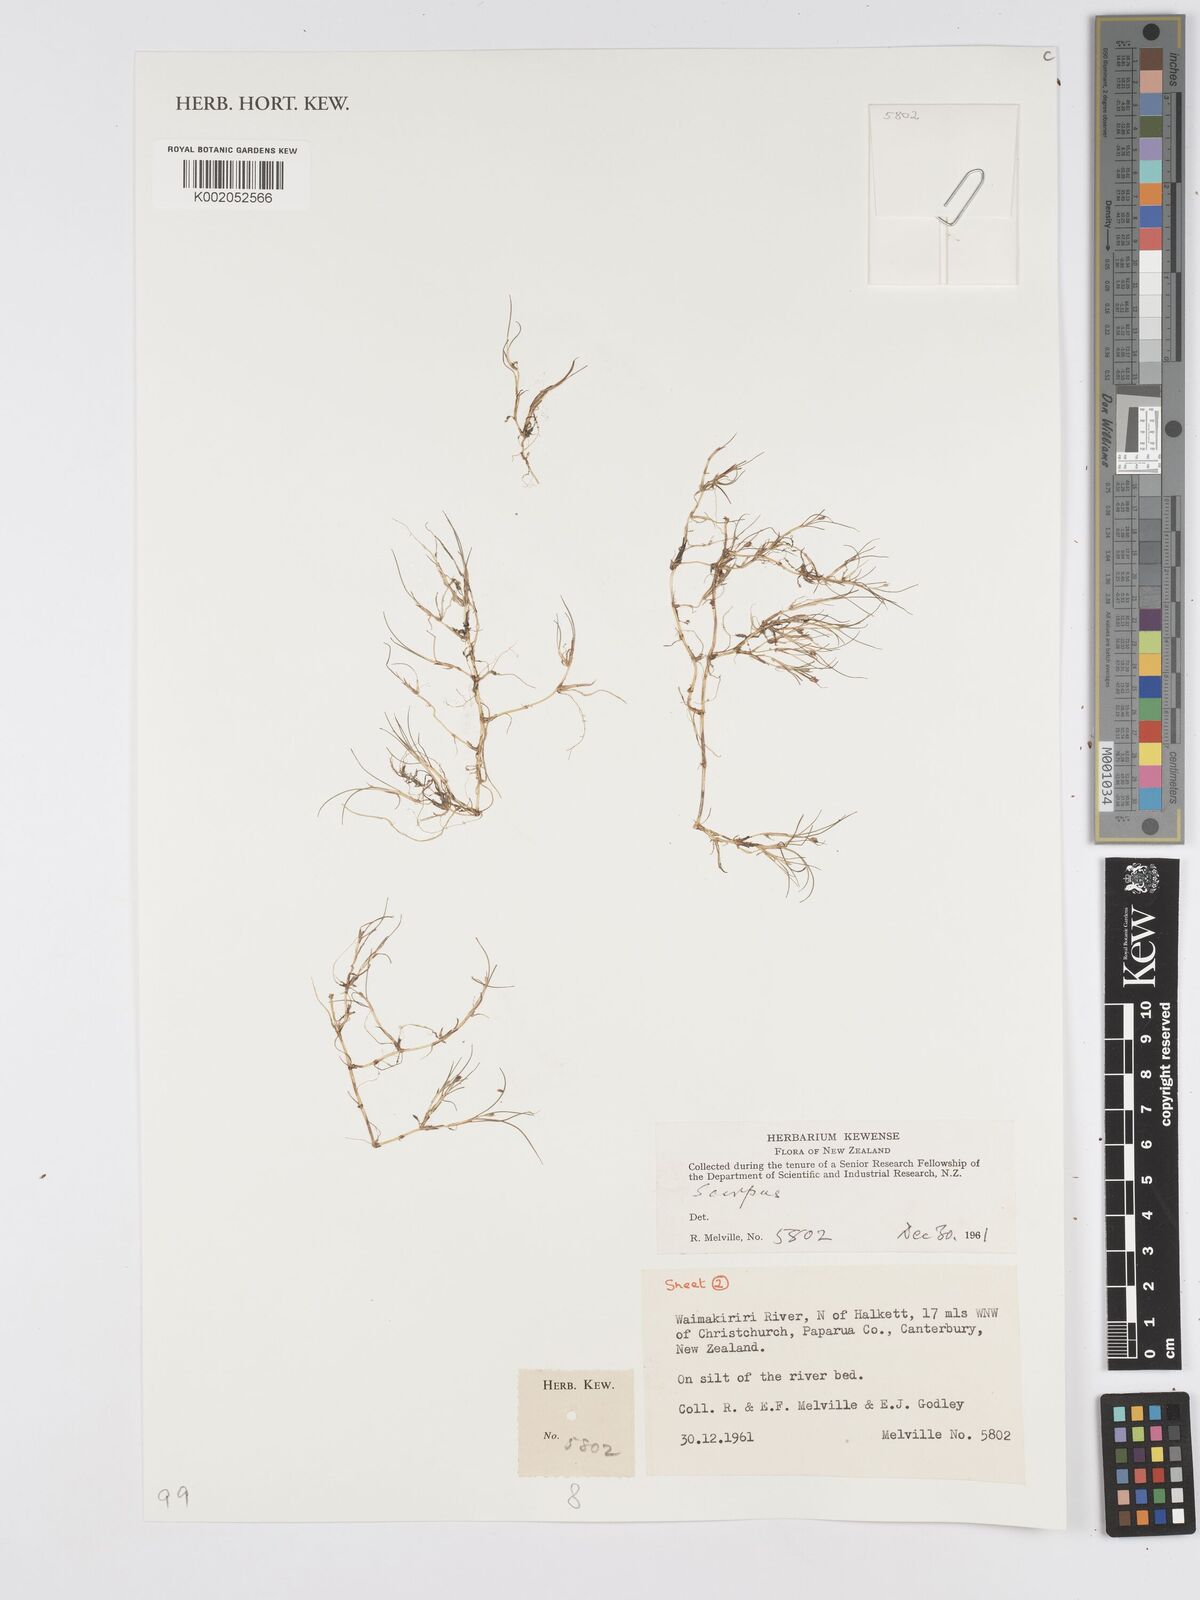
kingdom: Plantae
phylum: Tracheophyta
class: Liliopsida
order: Poales
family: Cyperaceae
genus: Scirpus
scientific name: Scirpus
